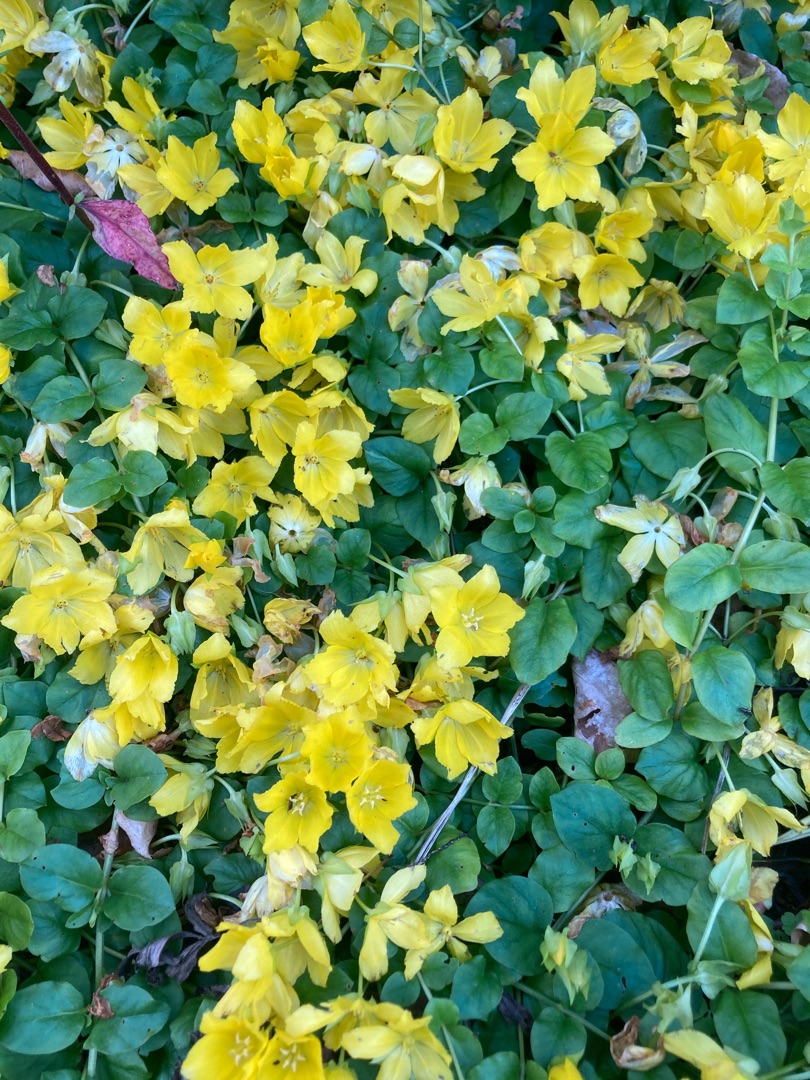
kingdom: Plantae
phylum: Tracheophyta
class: Magnoliopsida
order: Ericales
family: Primulaceae
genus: Lysimachia
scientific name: Lysimachia nummularia
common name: Pengebladet fredløs
